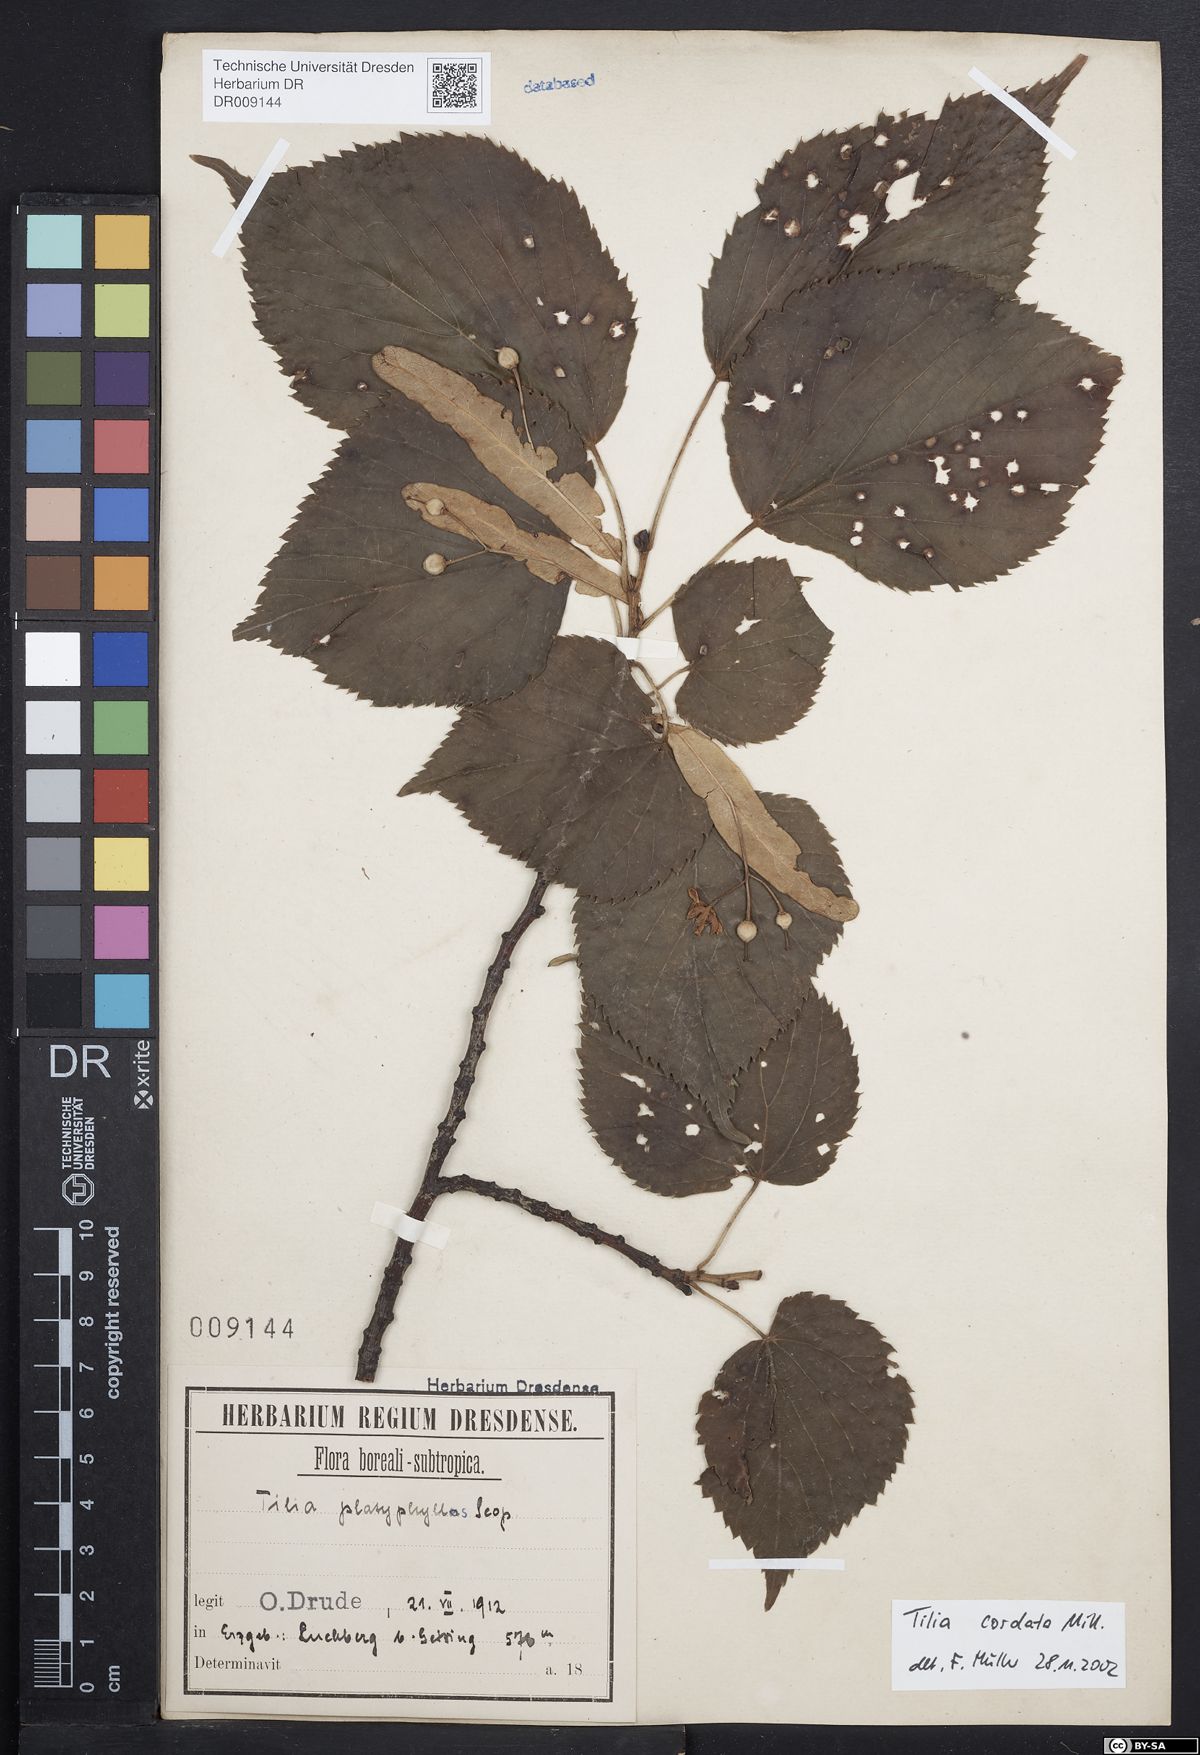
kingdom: Plantae
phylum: Tracheophyta
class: Magnoliopsida
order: Malvales
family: Malvaceae
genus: Tilia
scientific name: Tilia cordata
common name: Small-leaved lime
